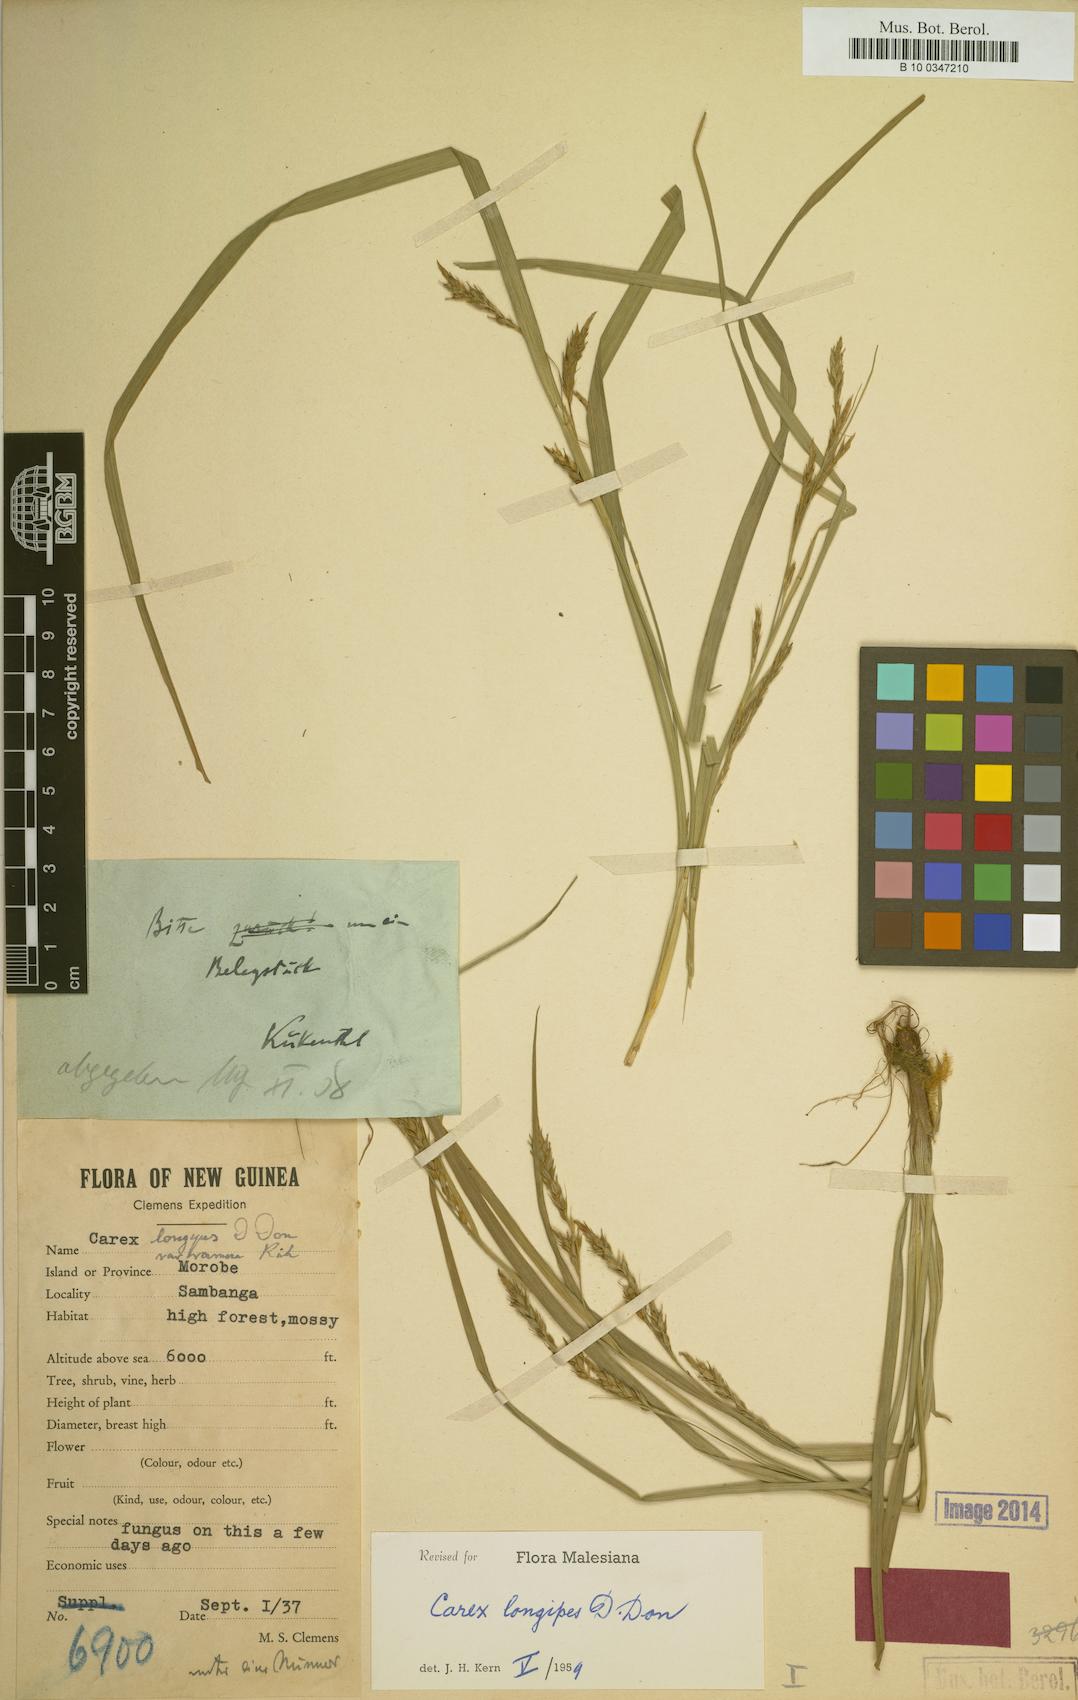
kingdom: Plantae
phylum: Tracheophyta
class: Liliopsida
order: Poales
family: Cyperaceae
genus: Carex
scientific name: Carex longipes
